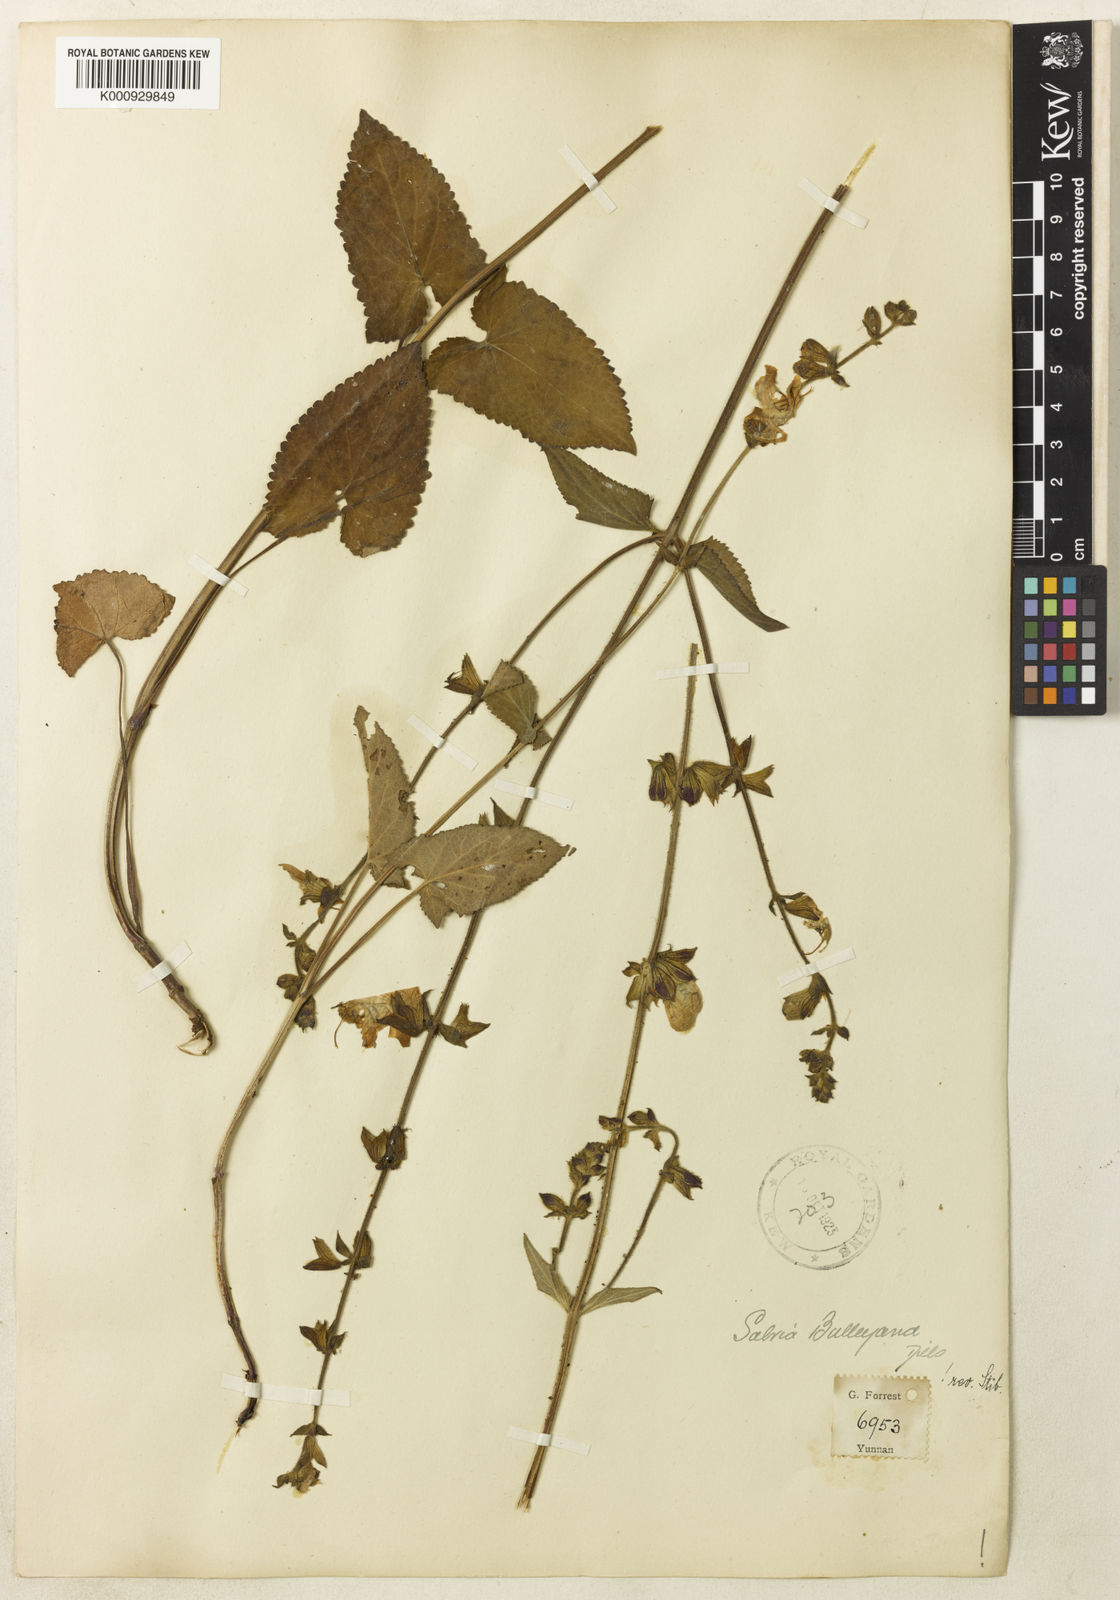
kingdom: Plantae
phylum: Tracheophyta
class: Magnoliopsida
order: Lamiales
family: Lamiaceae
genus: Salvia
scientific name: Salvia flava
